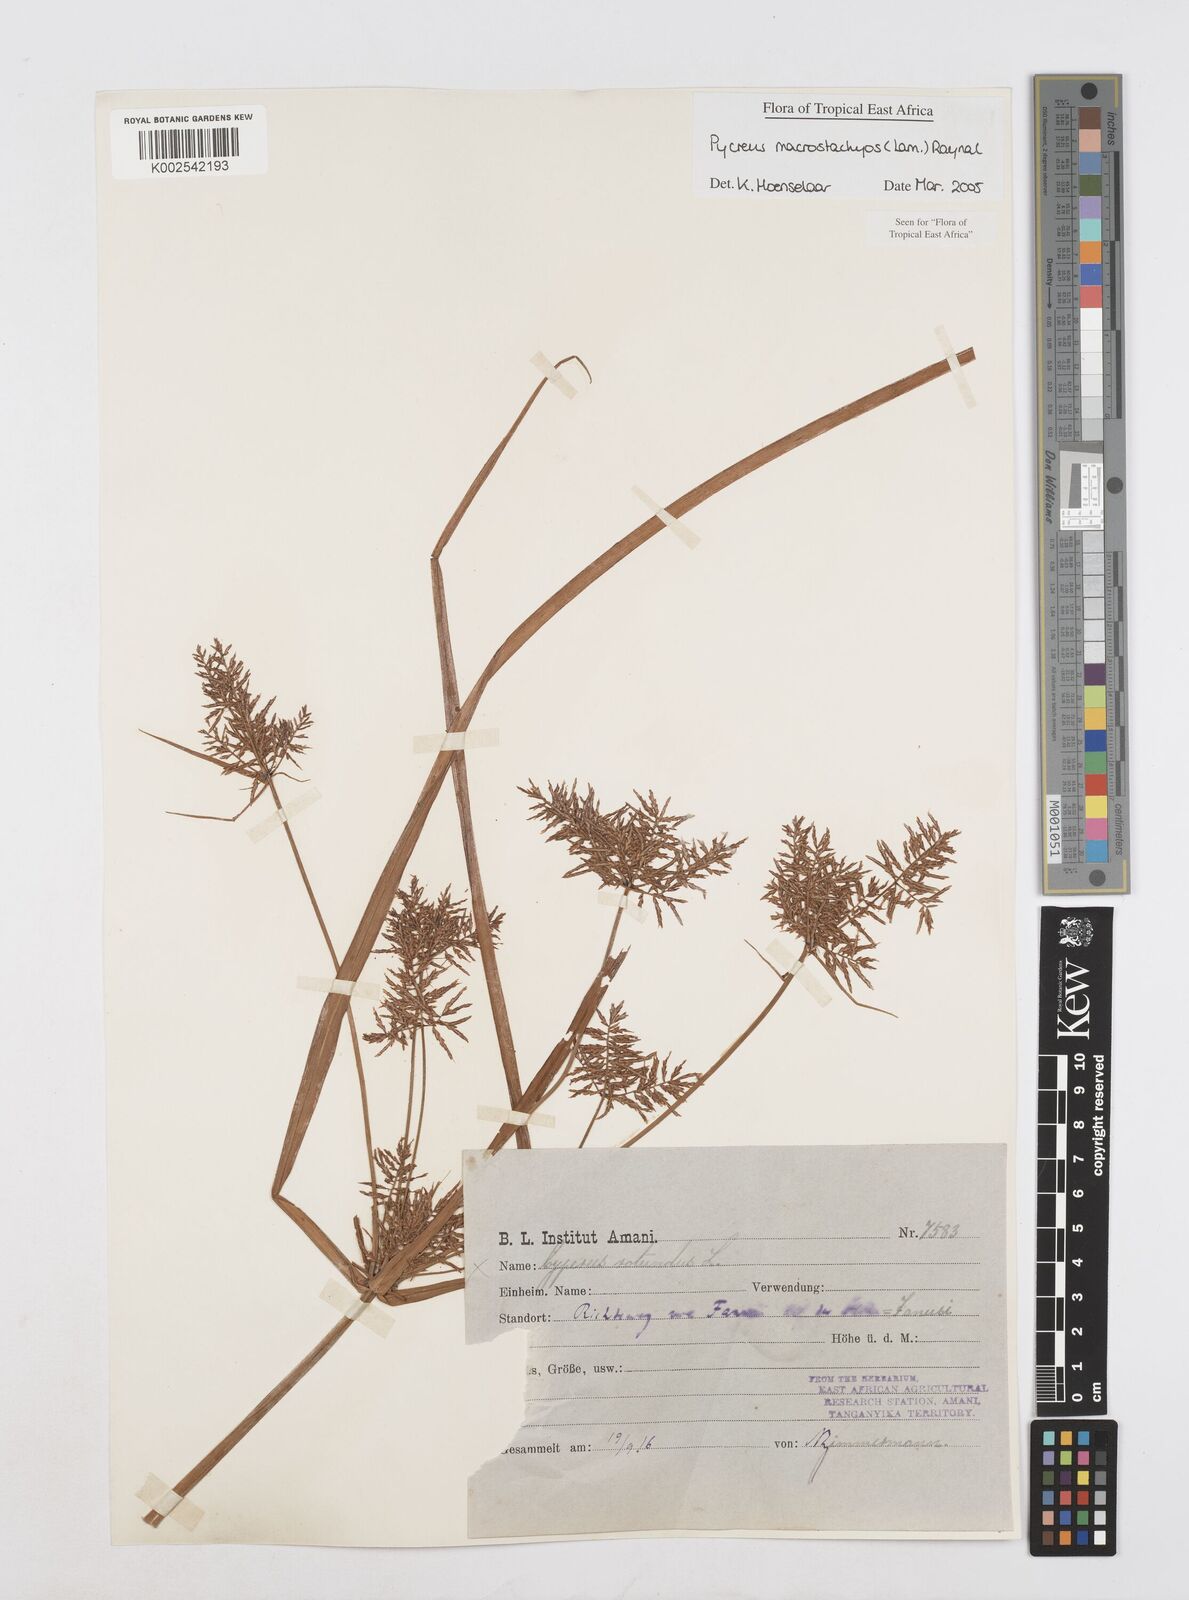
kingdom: Plantae
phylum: Tracheophyta
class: Liliopsida
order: Poales
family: Cyperaceae
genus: Cyperus
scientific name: Cyperus macrostachyos
